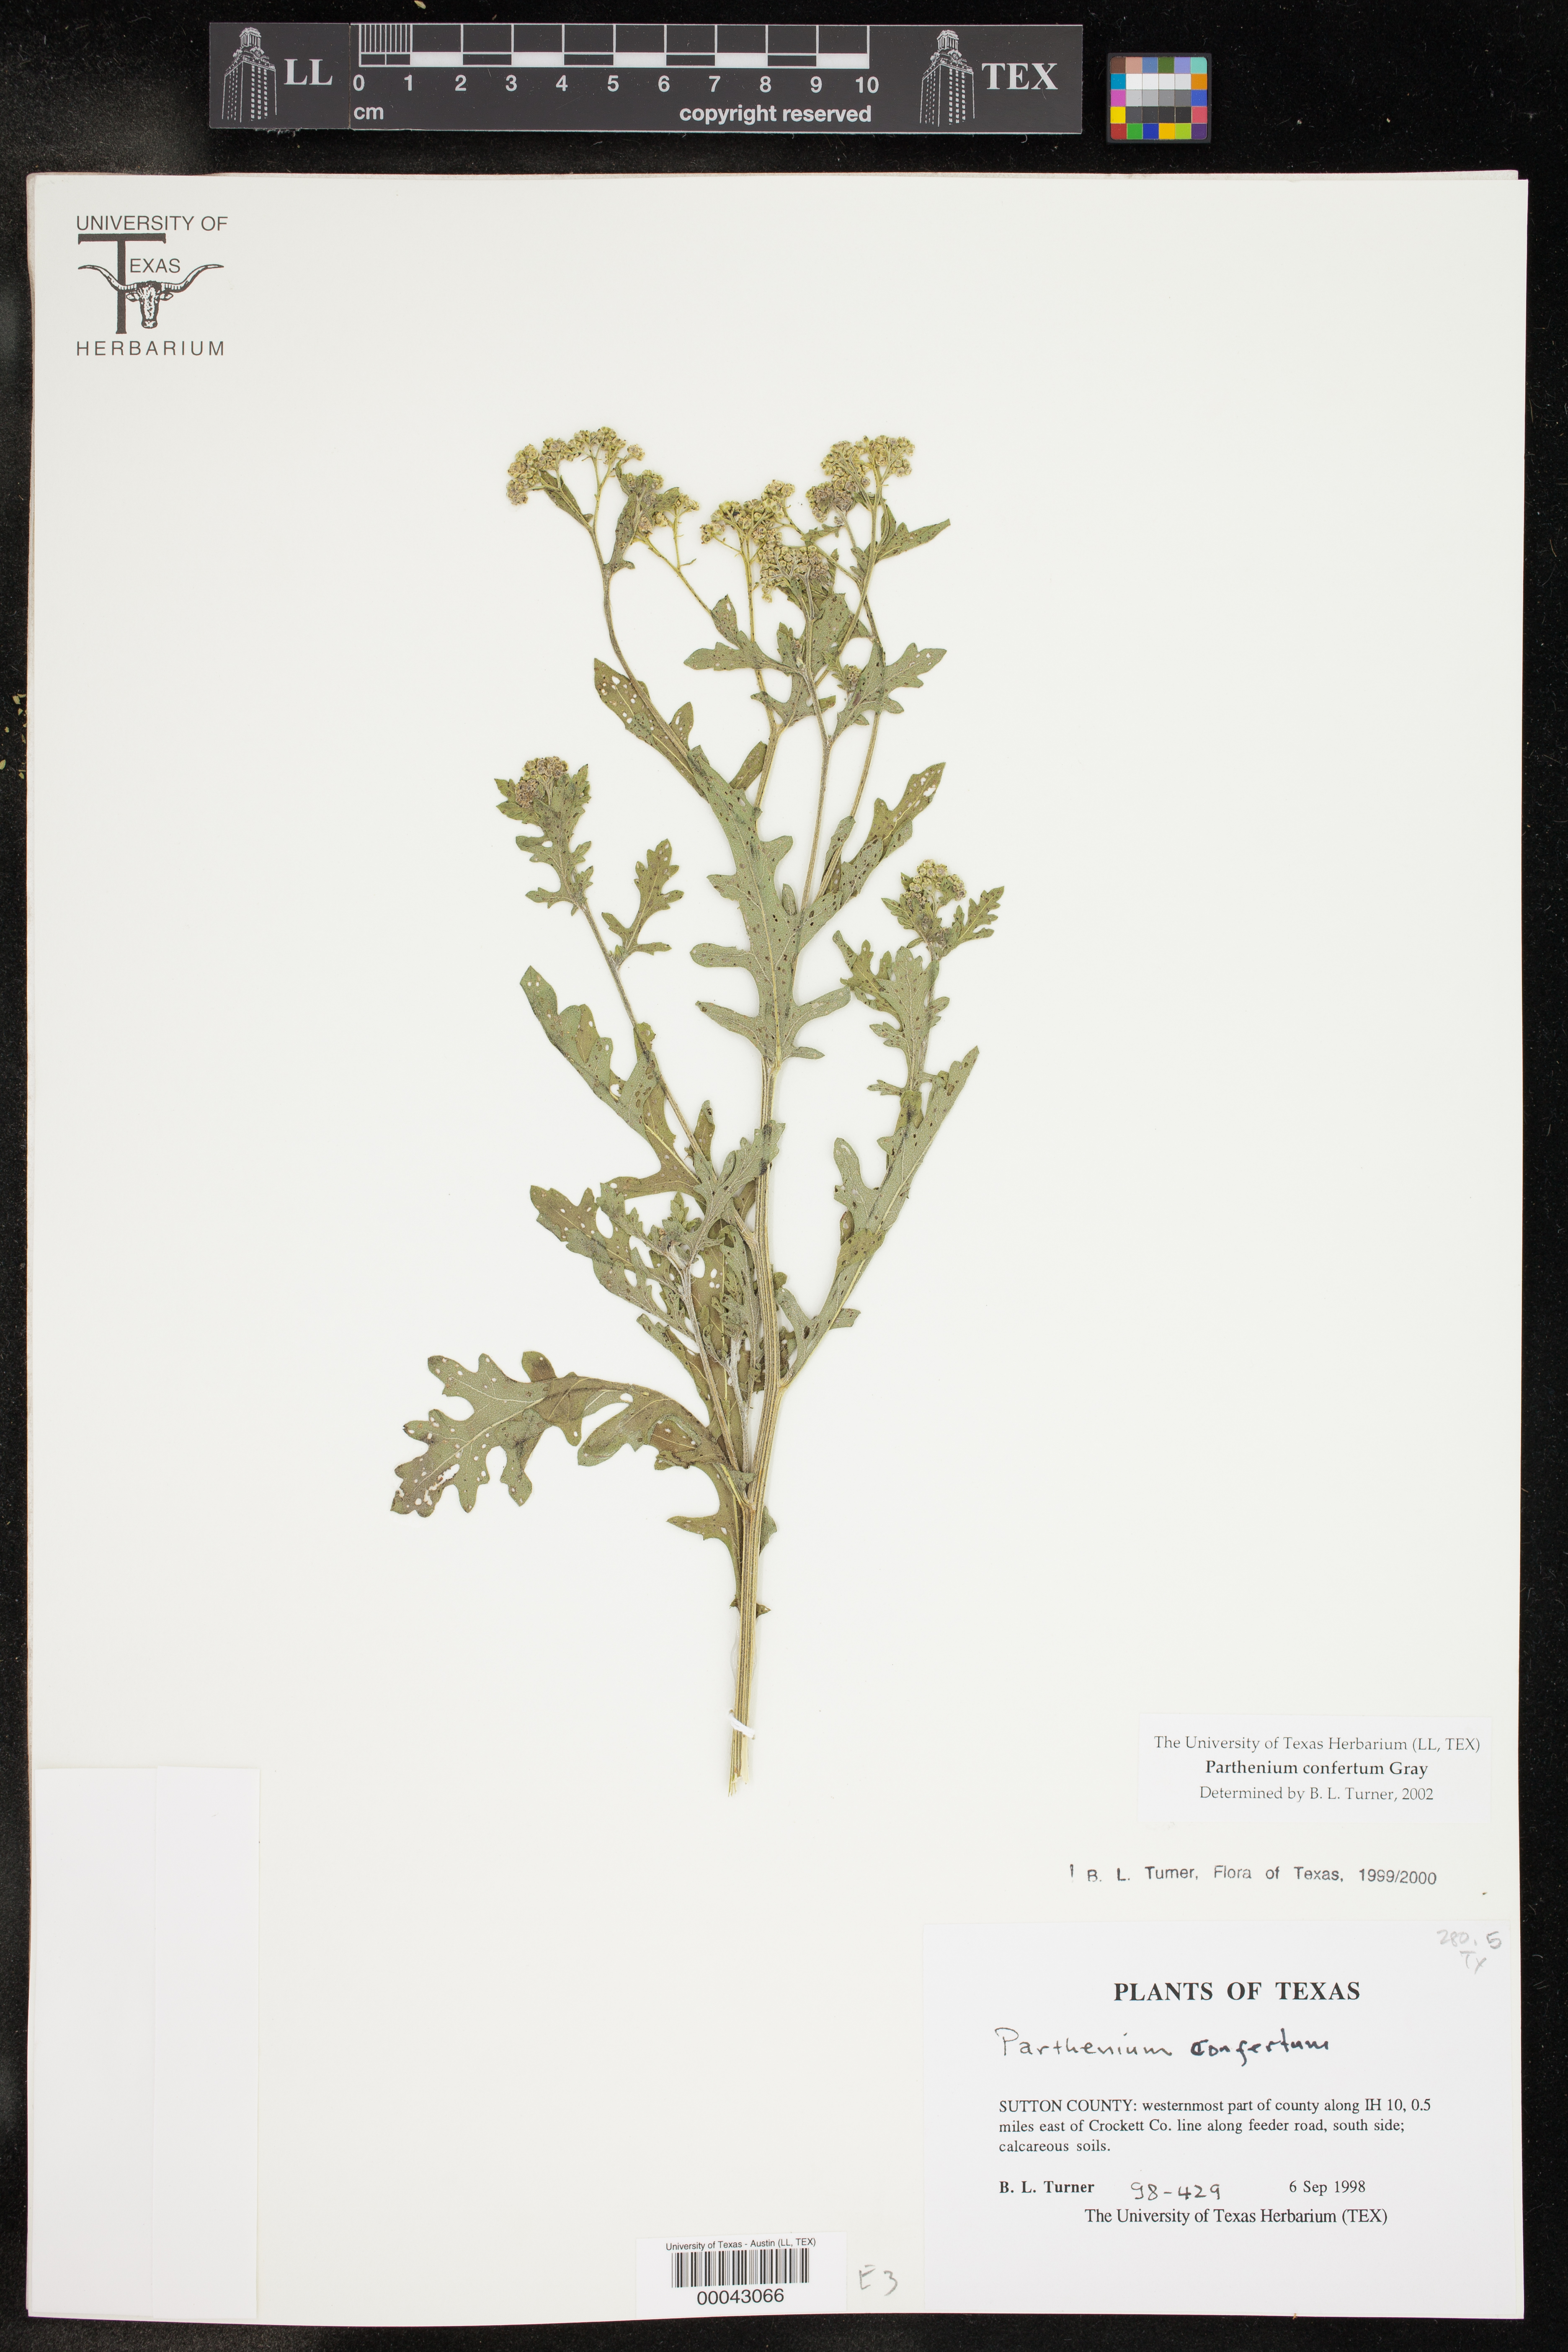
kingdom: Plantae
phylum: Tracheophyta
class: Magnoliopsida
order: Asterales
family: Asteraceae
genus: Parthenium
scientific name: Parthenium confertum
